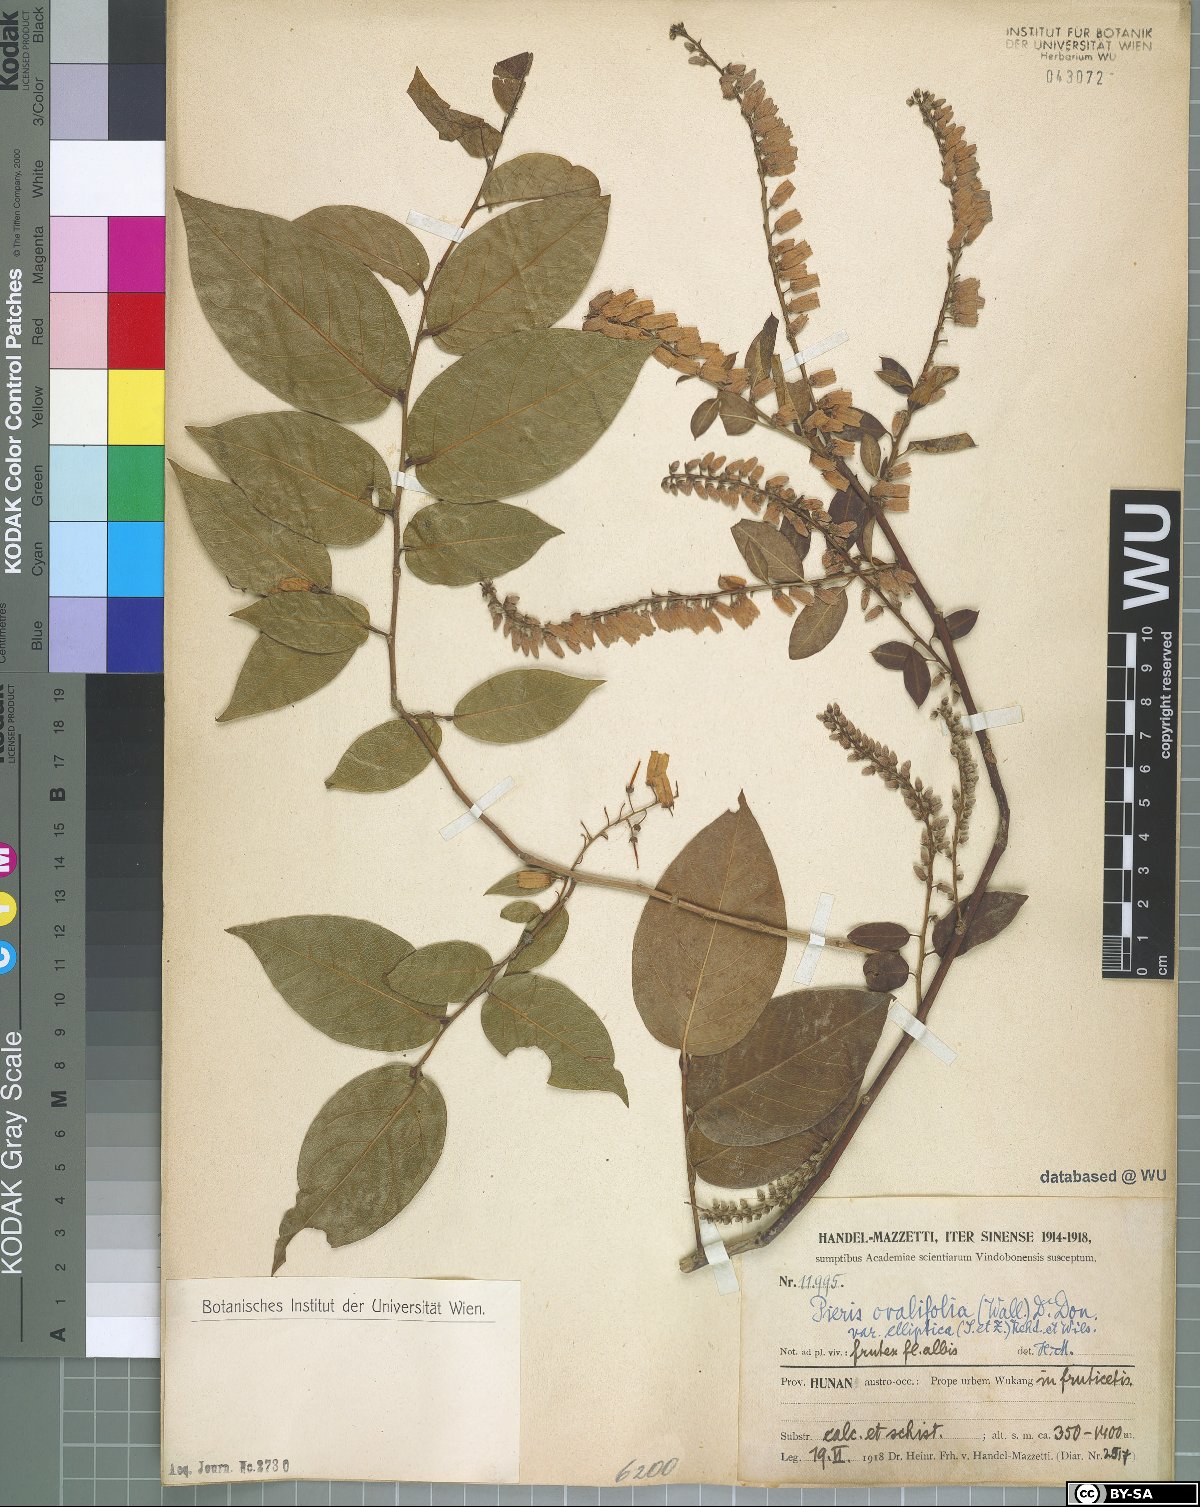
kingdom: Plantae
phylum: Tracheophyta
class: Magnoliopsida
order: Ericales
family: Ericaceae
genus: Lyonia
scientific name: Lyonia ovalifolia
